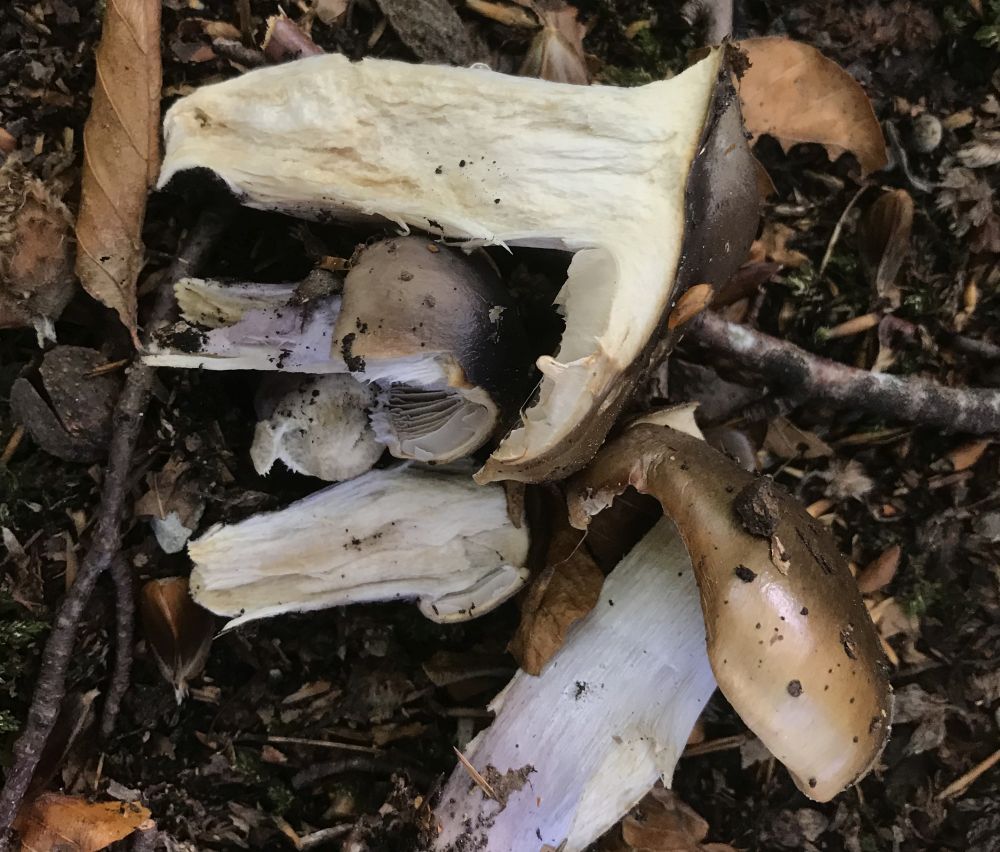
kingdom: Fungi
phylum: Basidiomycota
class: Agaricomycetes
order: Agaricales
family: Cortinariaceae
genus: Cortinarius
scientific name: Cortinarius livido-ochraceus
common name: halvhøj slørhat
